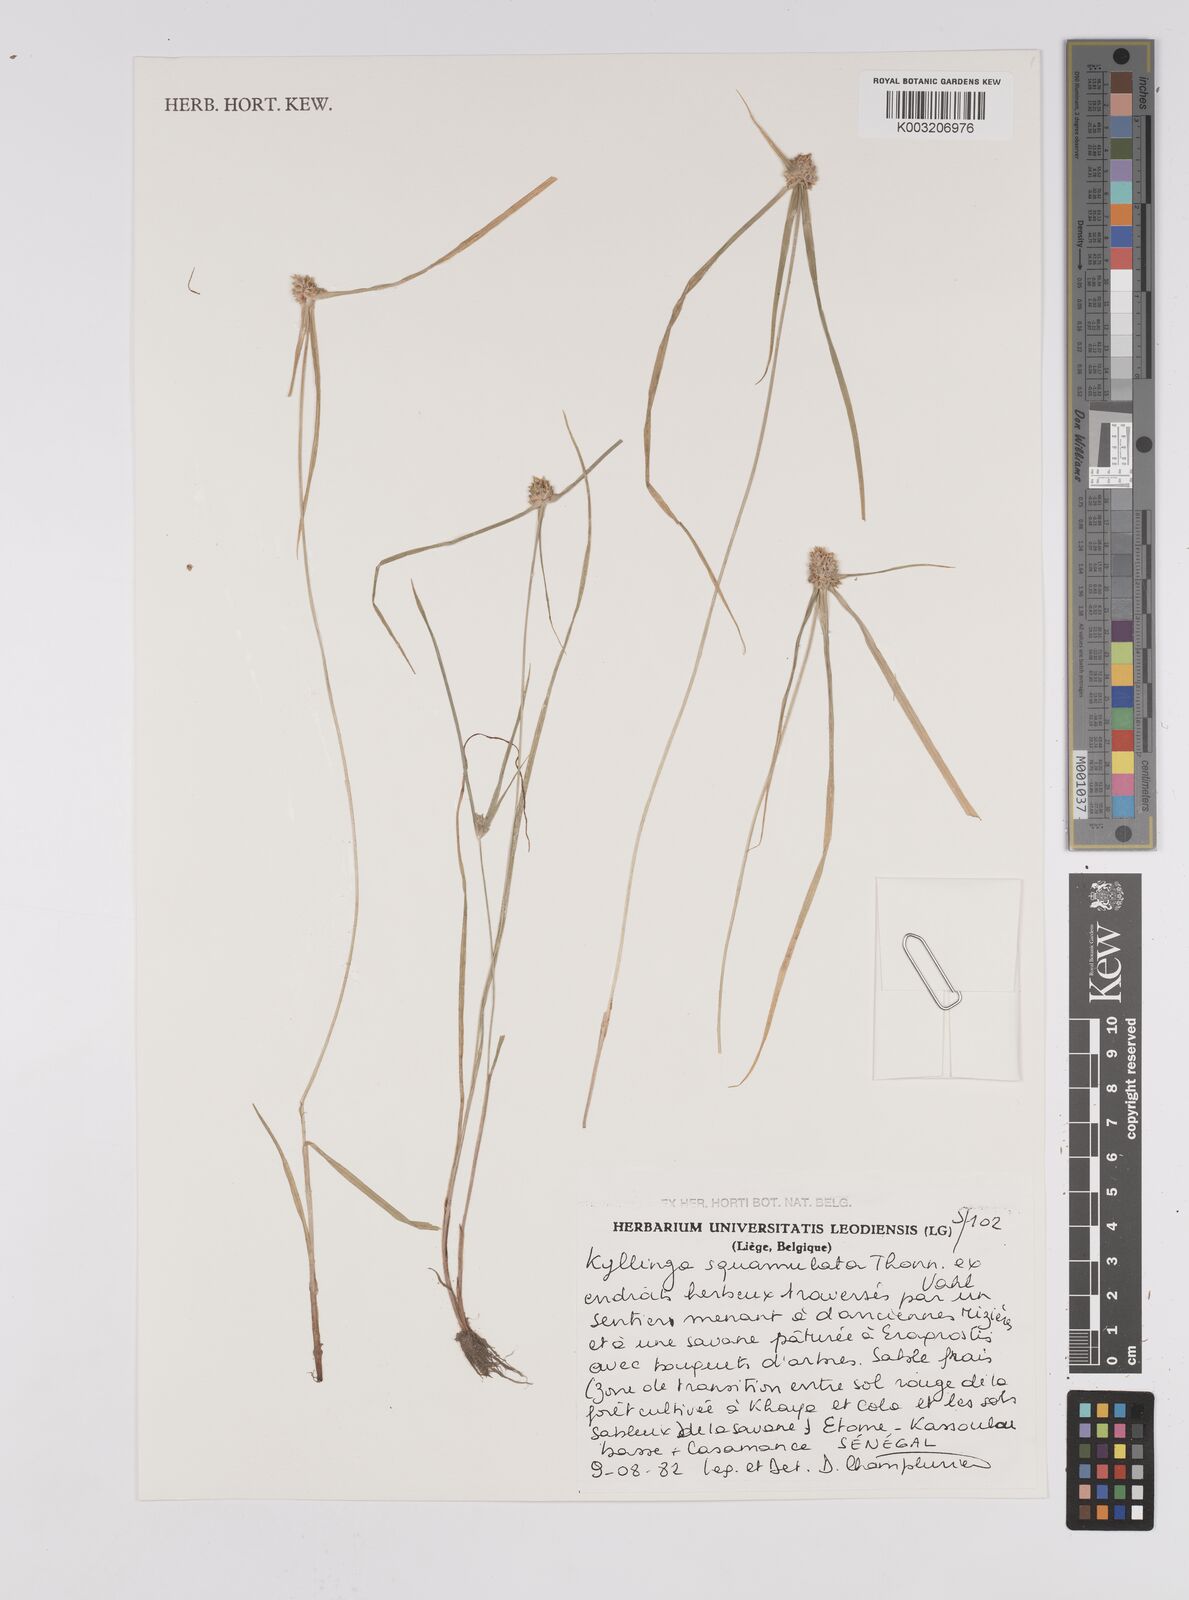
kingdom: Plantae
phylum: Tracheophyta
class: Liliopsida
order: Poales
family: Cyperaceae
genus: Cyperus
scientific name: Cyperus metzii
